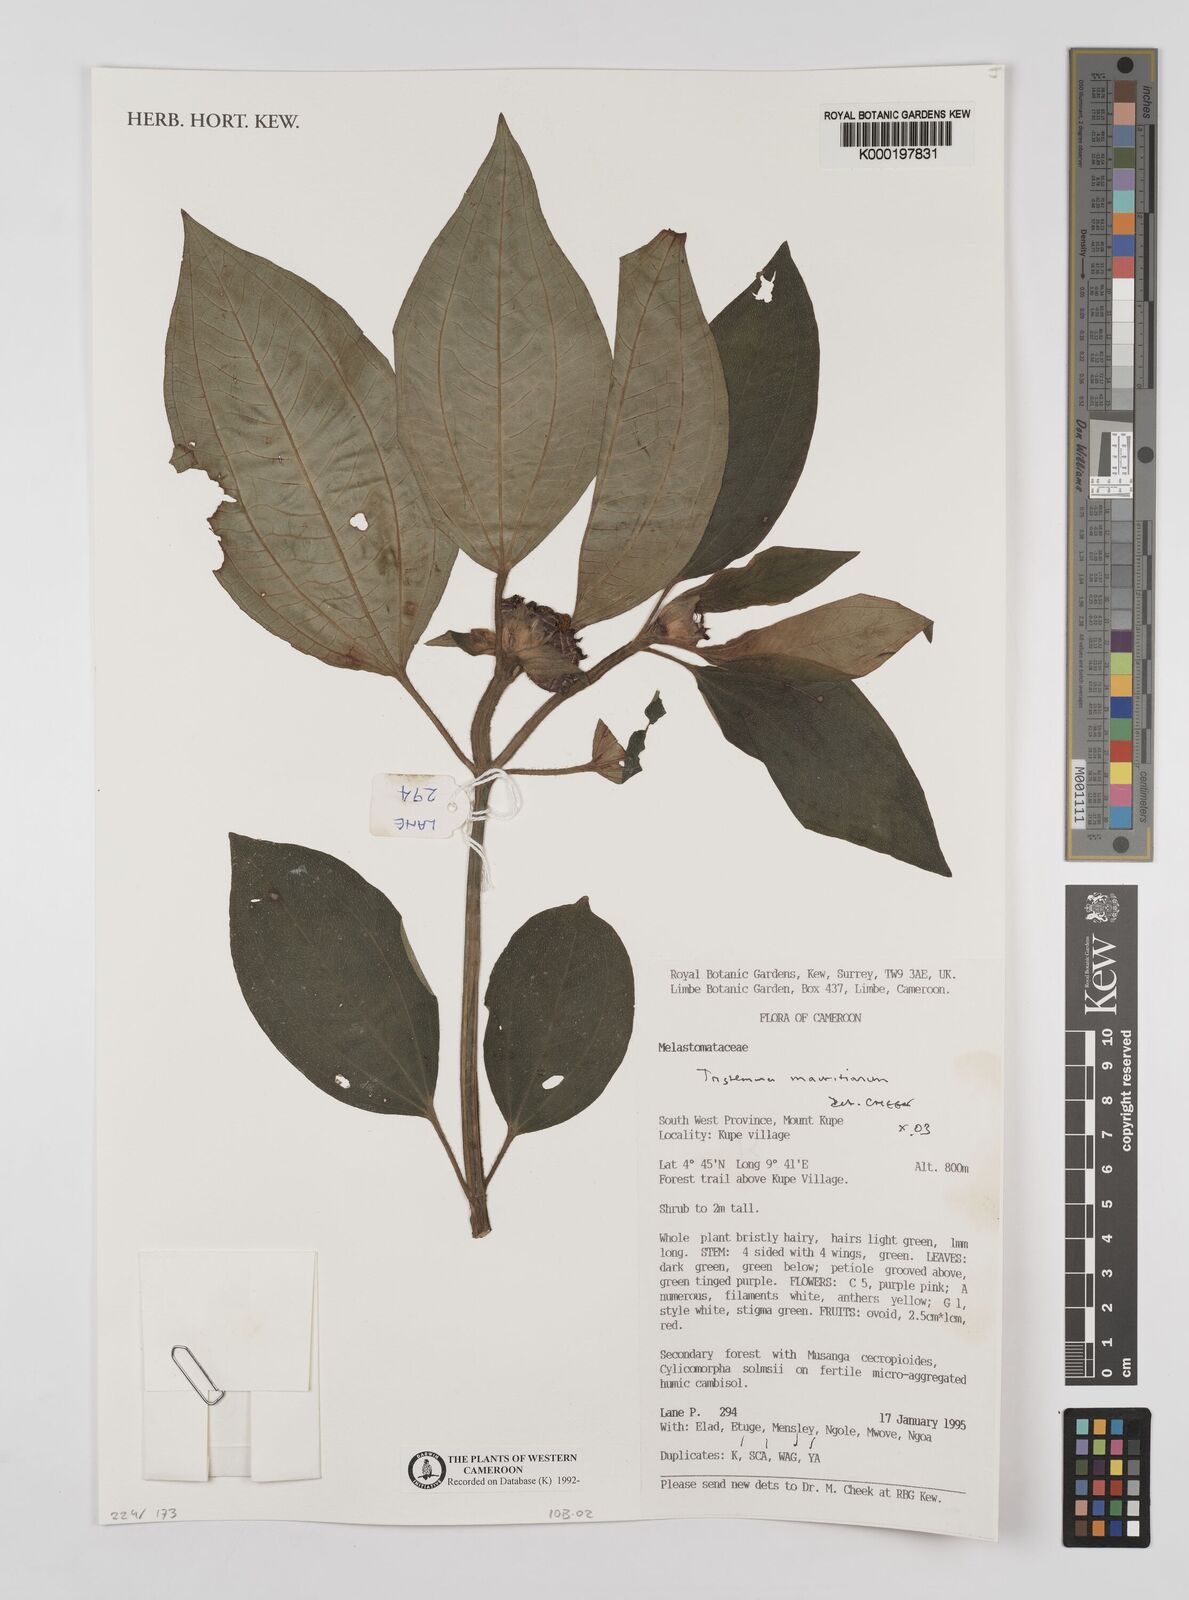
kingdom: Plantae
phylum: Tracheophyta
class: Magnoliopsida
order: Myrtales
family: Melastomataceae
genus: Tristemma
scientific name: Tristemma
